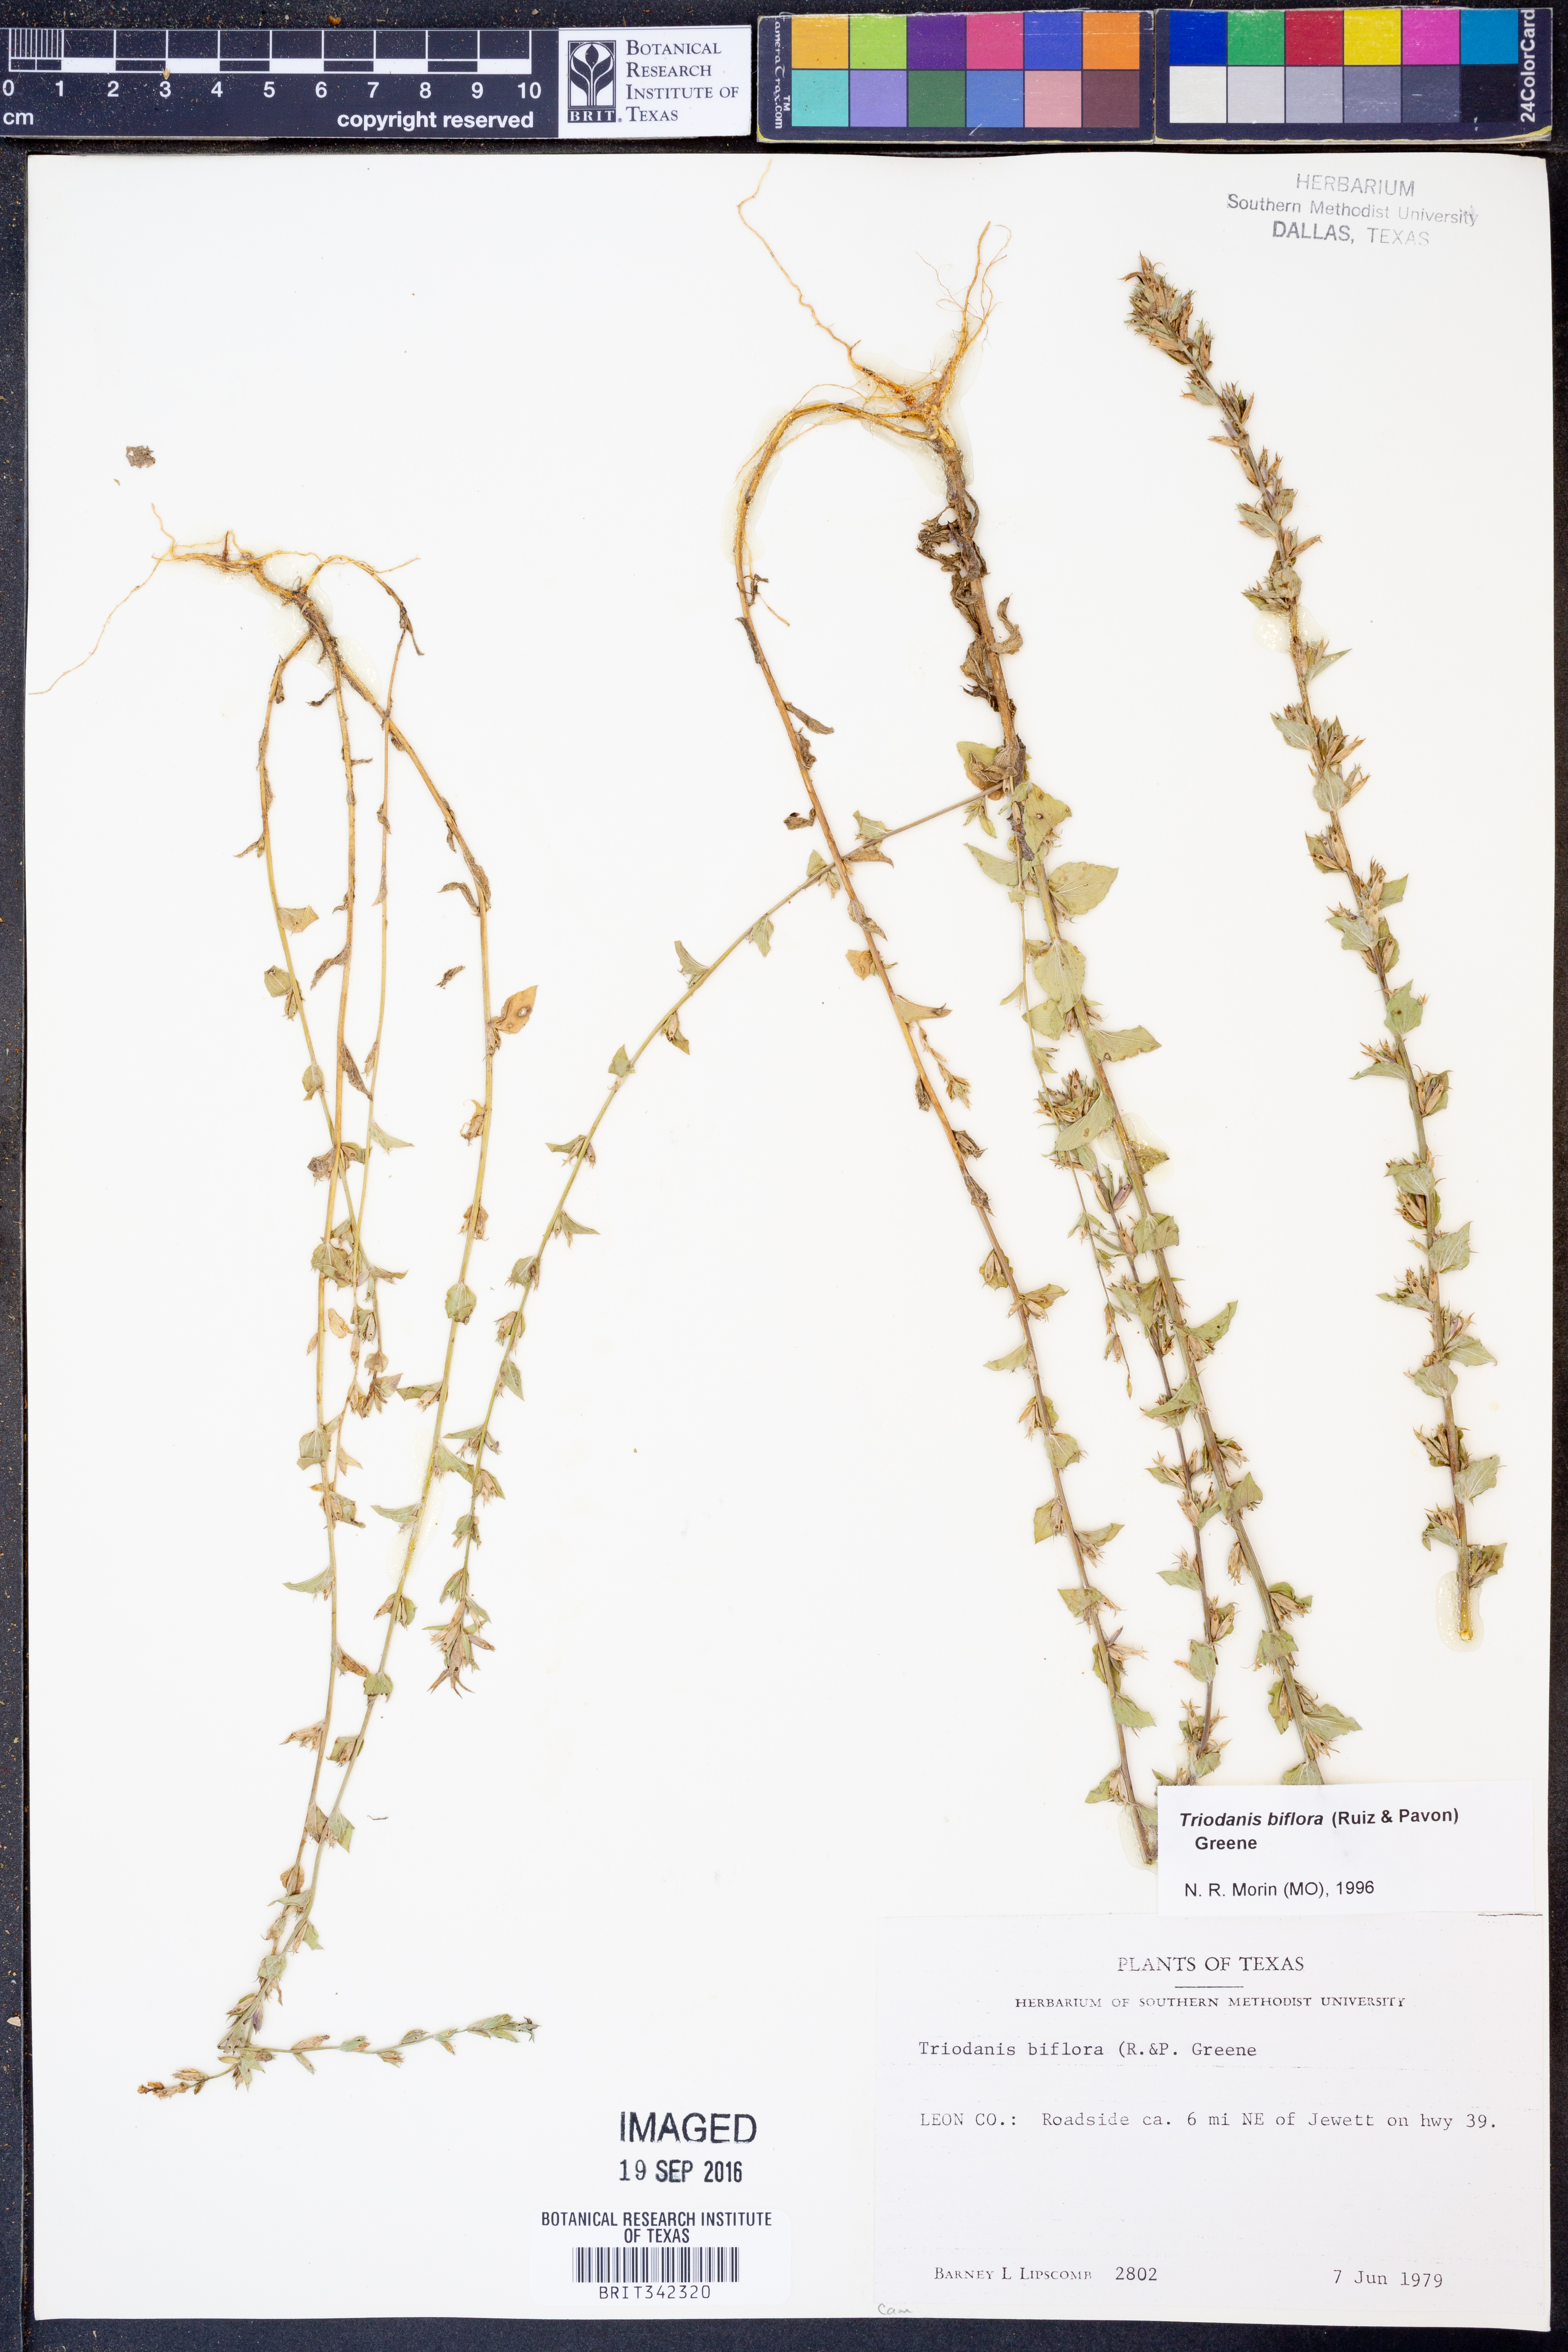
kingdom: Plantae
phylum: Tracheophyta
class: Magnoliopsida
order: Asterales
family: Campanulaceae
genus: Triodanis
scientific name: Triodanis perfoliata
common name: Clasping venus' looking-glass
